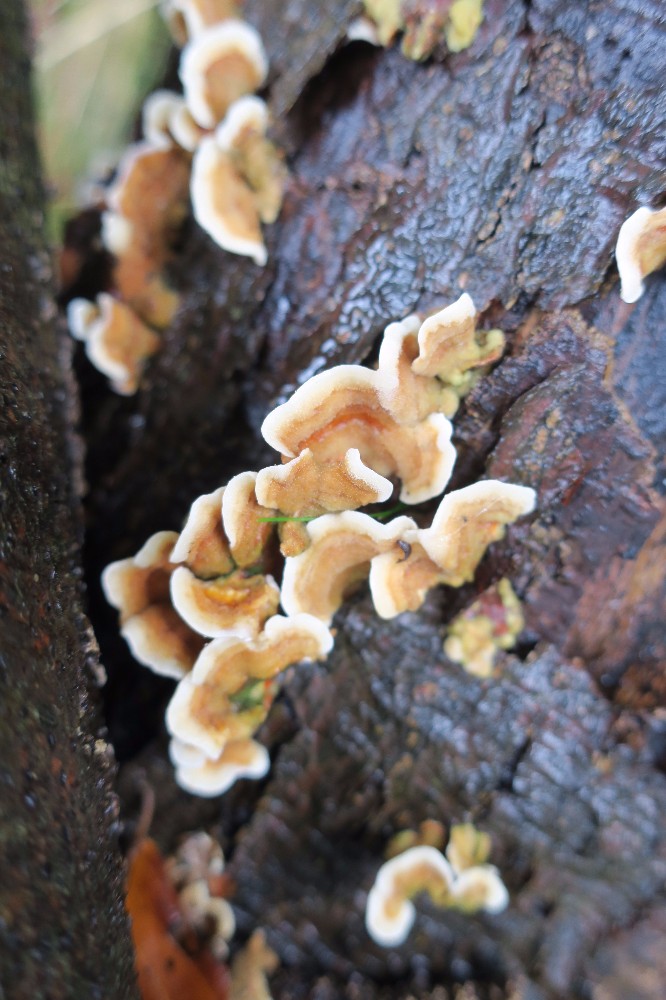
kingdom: Fungi
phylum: Basidiomycota
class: Agaricomycetes
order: Russulales
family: Stereaceae
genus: Stereum
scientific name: Stereum hirsutum
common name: håret lædersvamp
